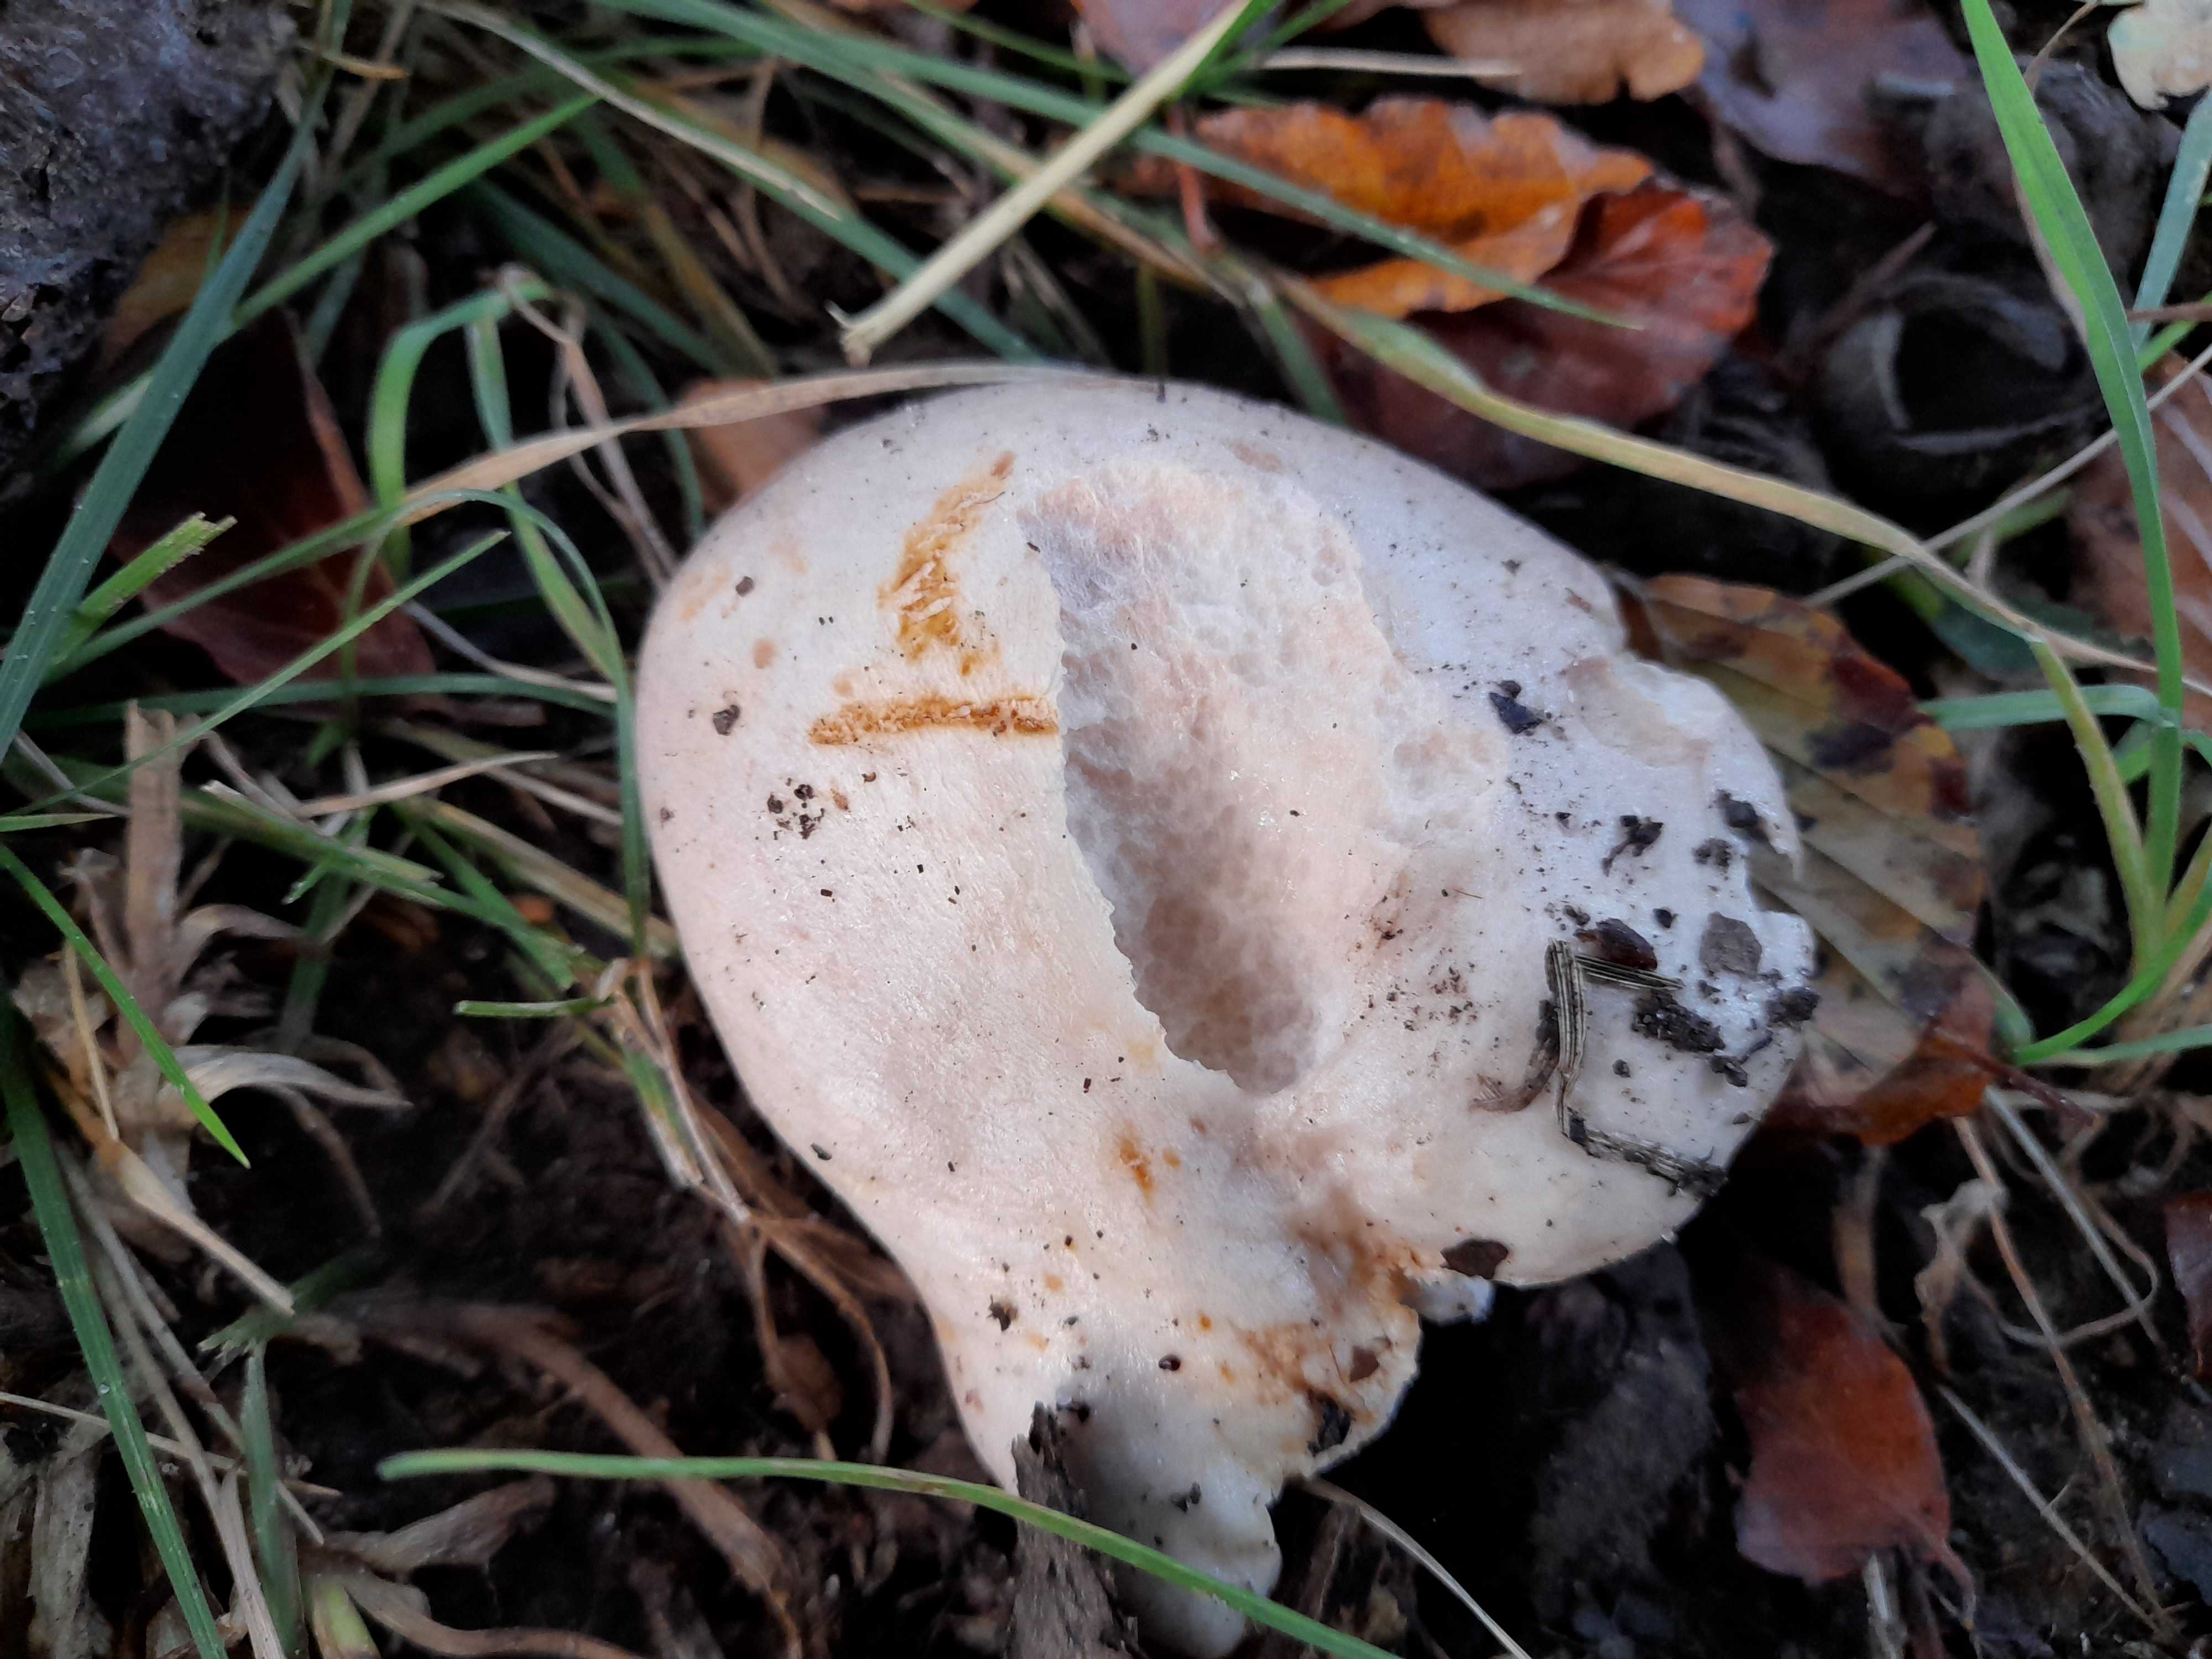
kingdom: Fungi
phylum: Basidiomycota
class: Agaricomycetes
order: Russulales
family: Russulaceae
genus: Lactarius
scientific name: Lactarius
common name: mælkehat
